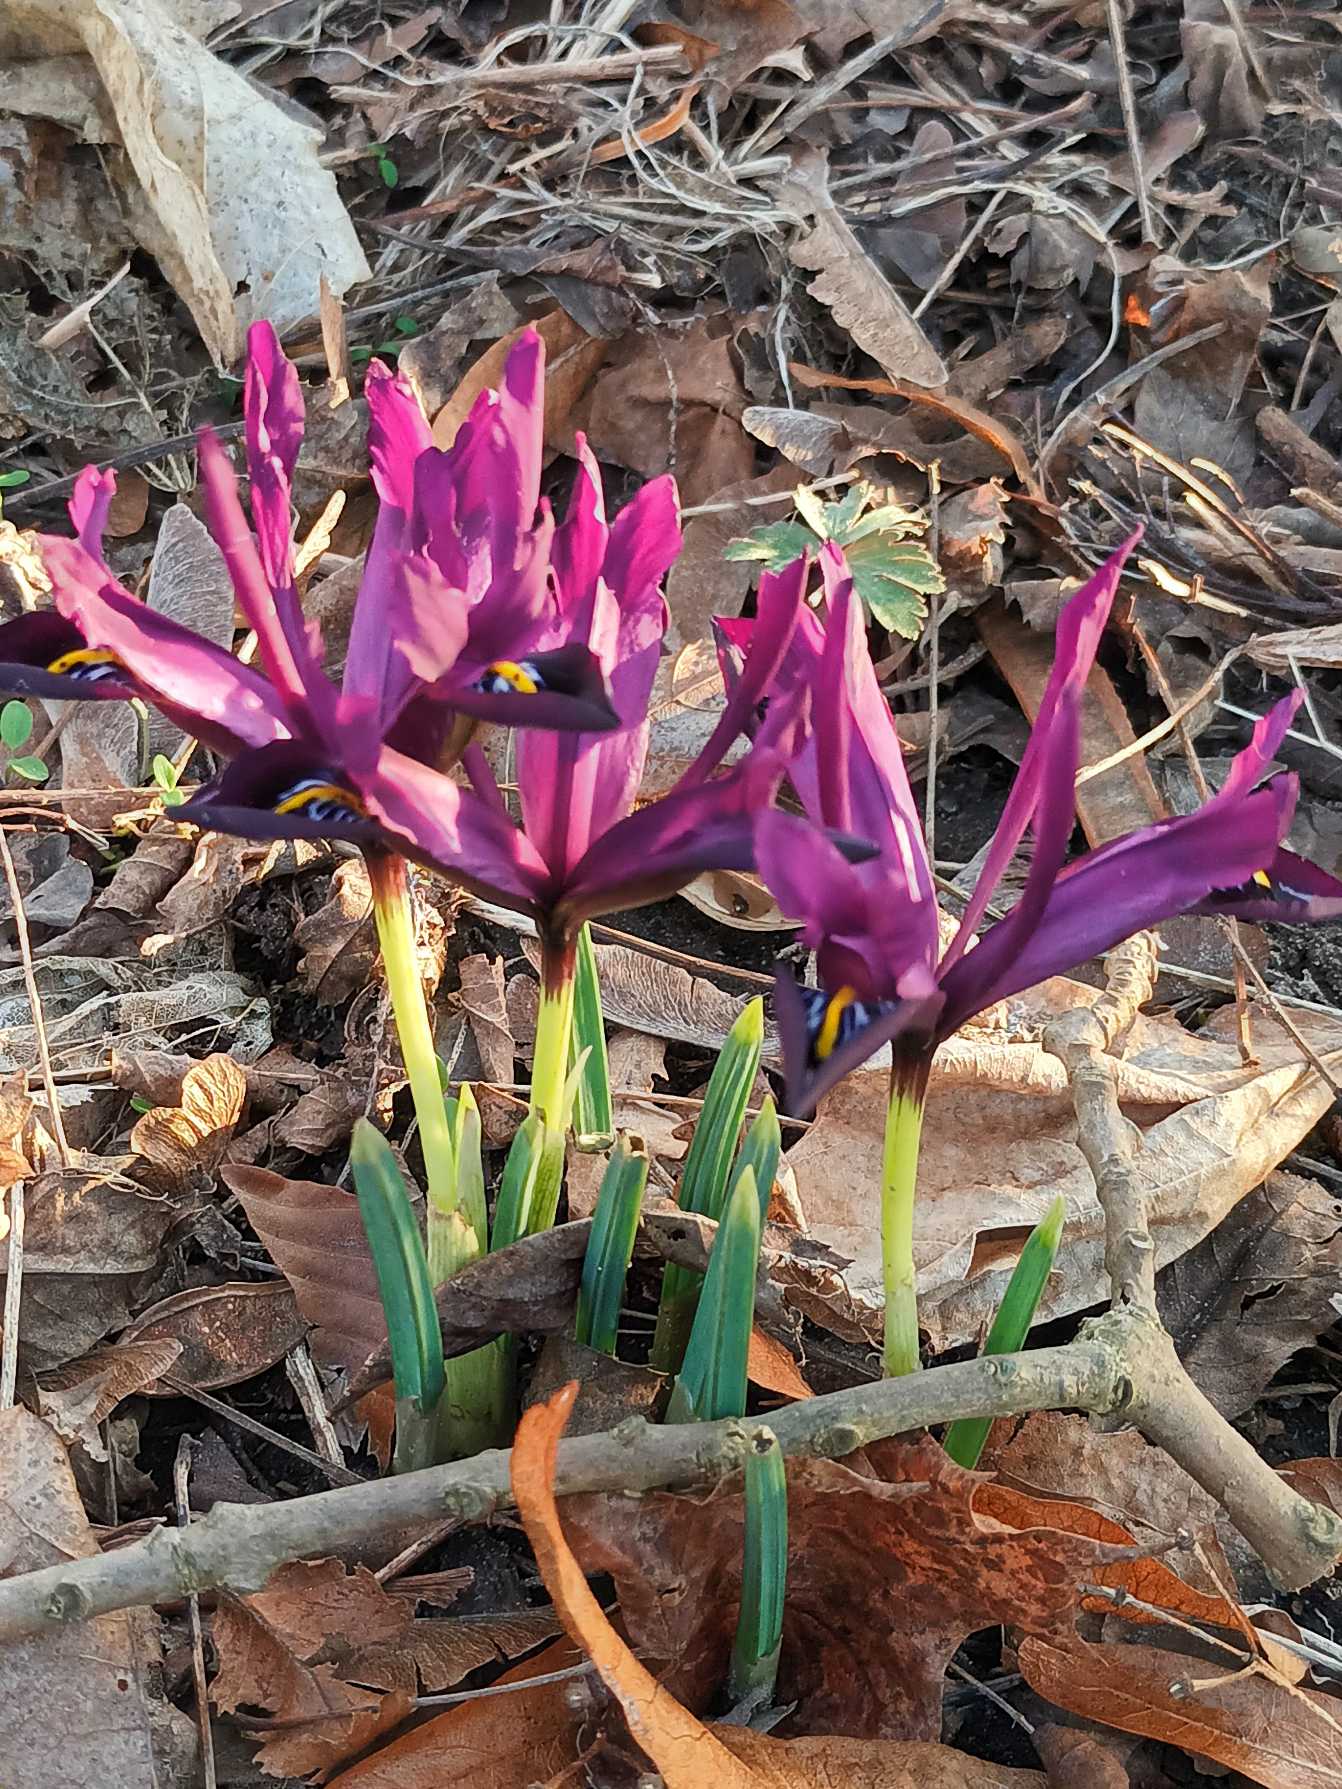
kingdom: Plantae
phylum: Tracheophyta
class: Liliopsida
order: Asparagales
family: Iridaceae
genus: Iris
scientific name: Iris reticulata
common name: Vår-iris
